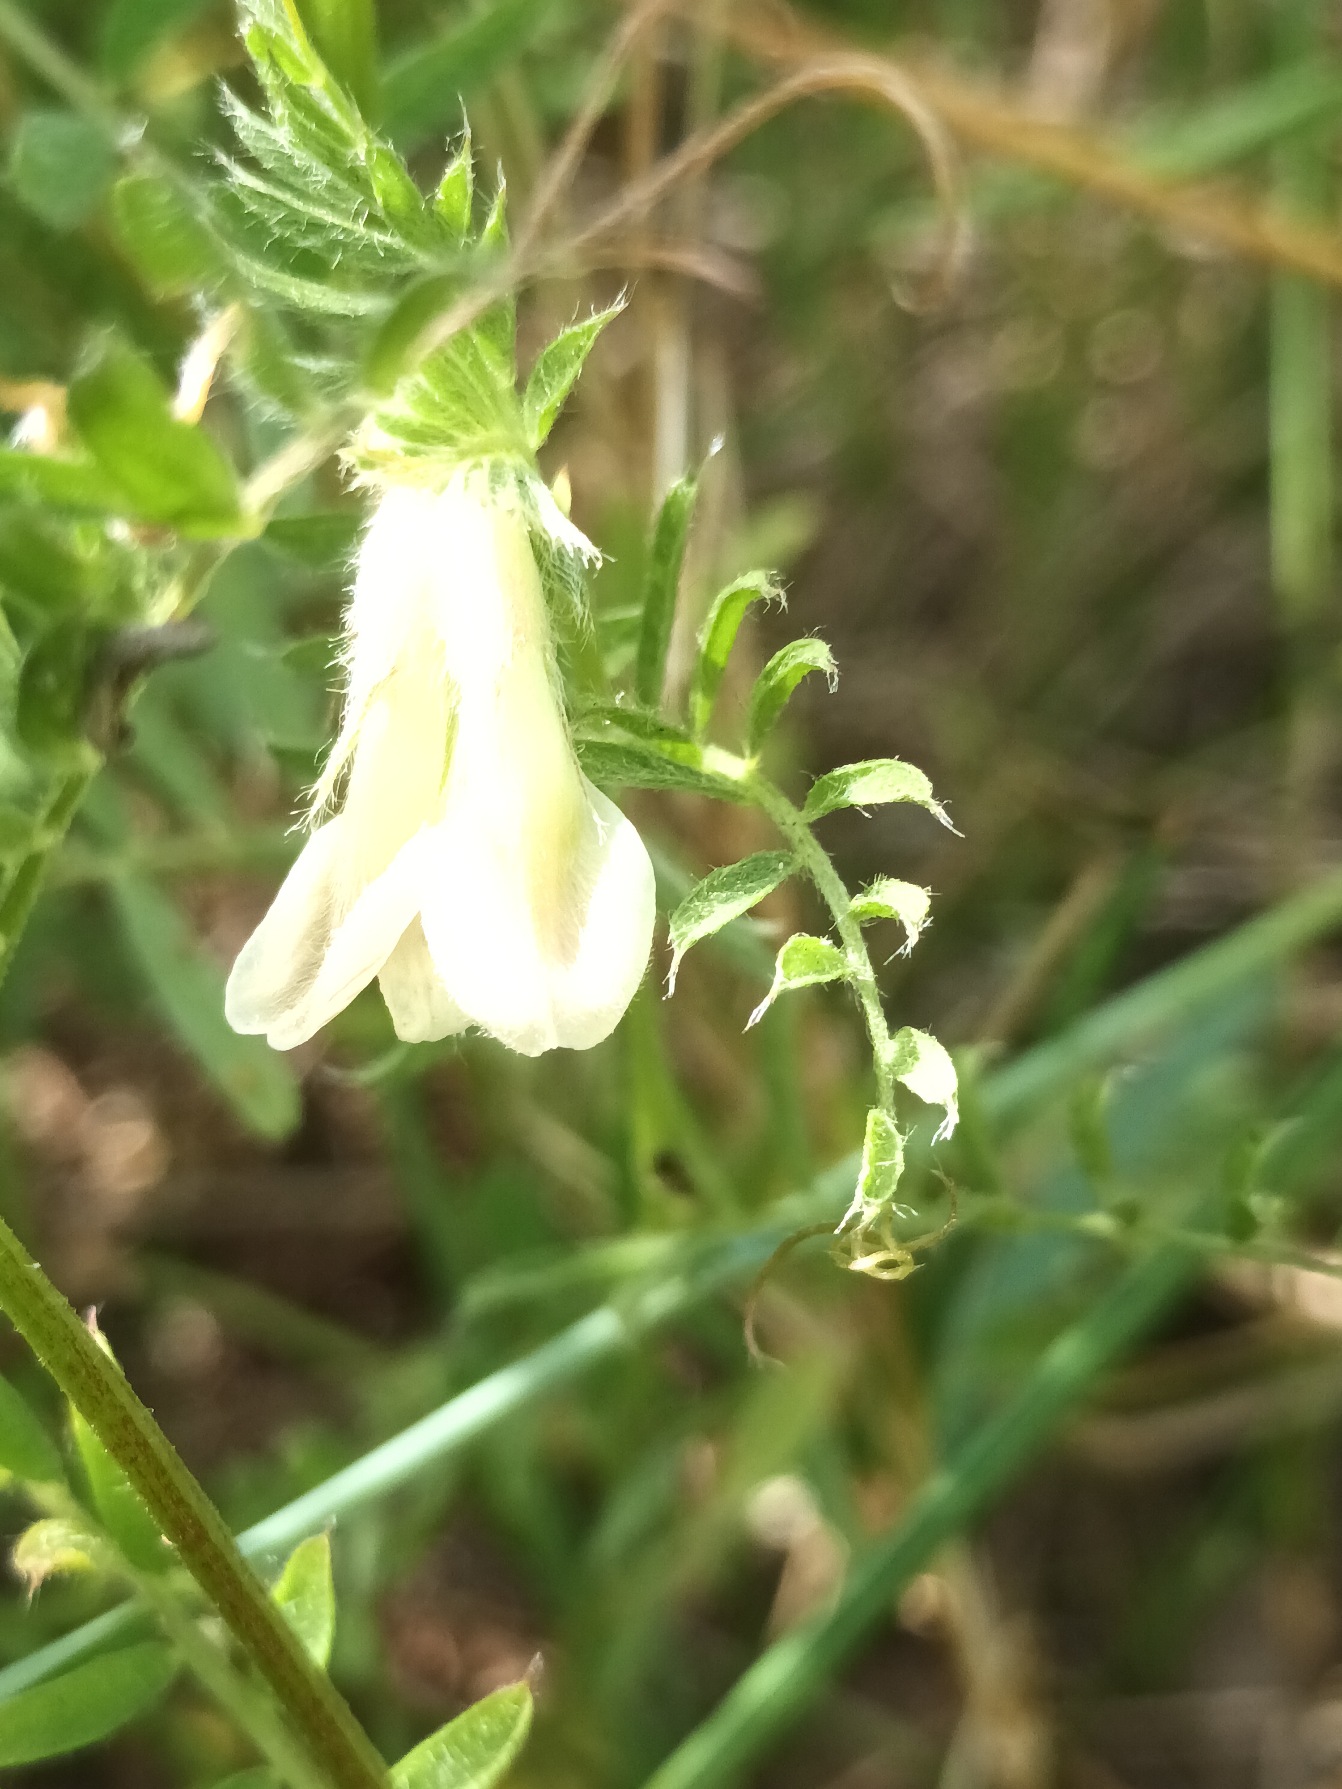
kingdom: Plantae
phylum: Tracheophyta
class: Magnoliopsida
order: Fabales
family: Fabaceae
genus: Vicia
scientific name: Vicia pannonica
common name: Ungarsk vikke
